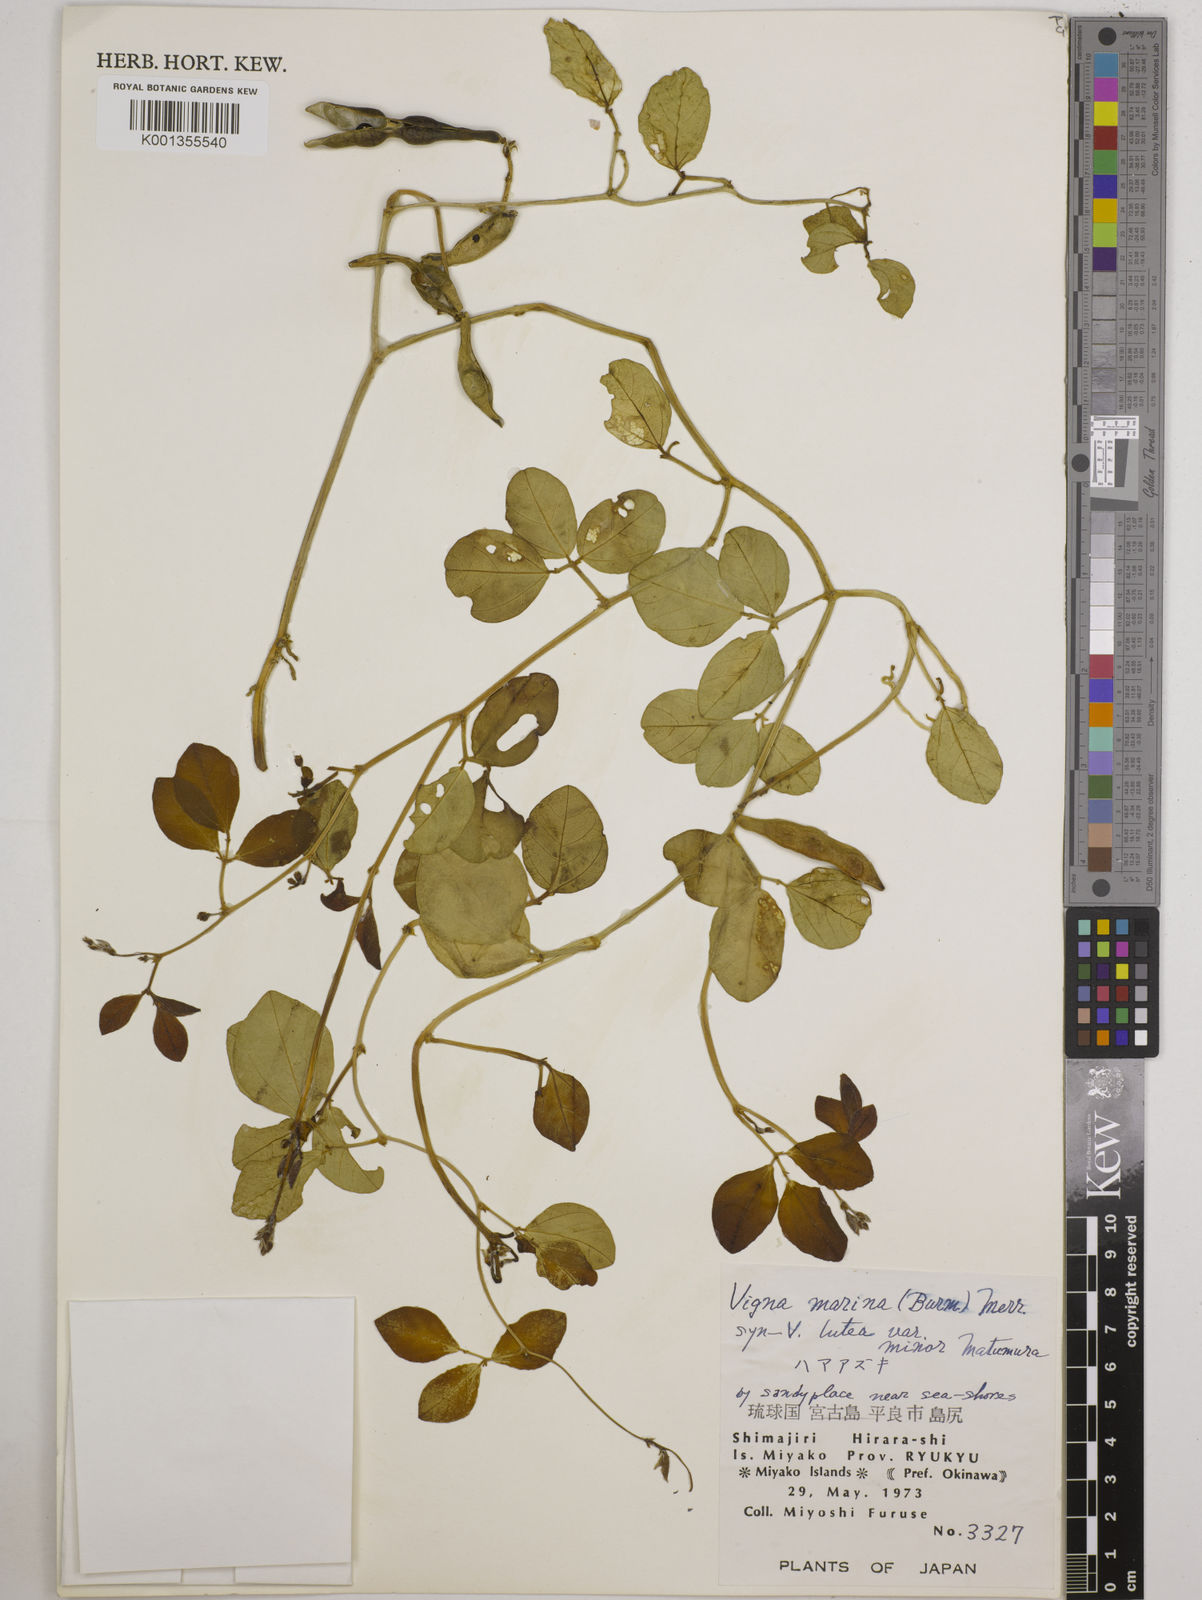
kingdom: Plantae
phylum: Tracheophyta
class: Magnoliopsida
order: Fabales
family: Fabaceae
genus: Vigna
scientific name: Vigna marina
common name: Dune-bean
